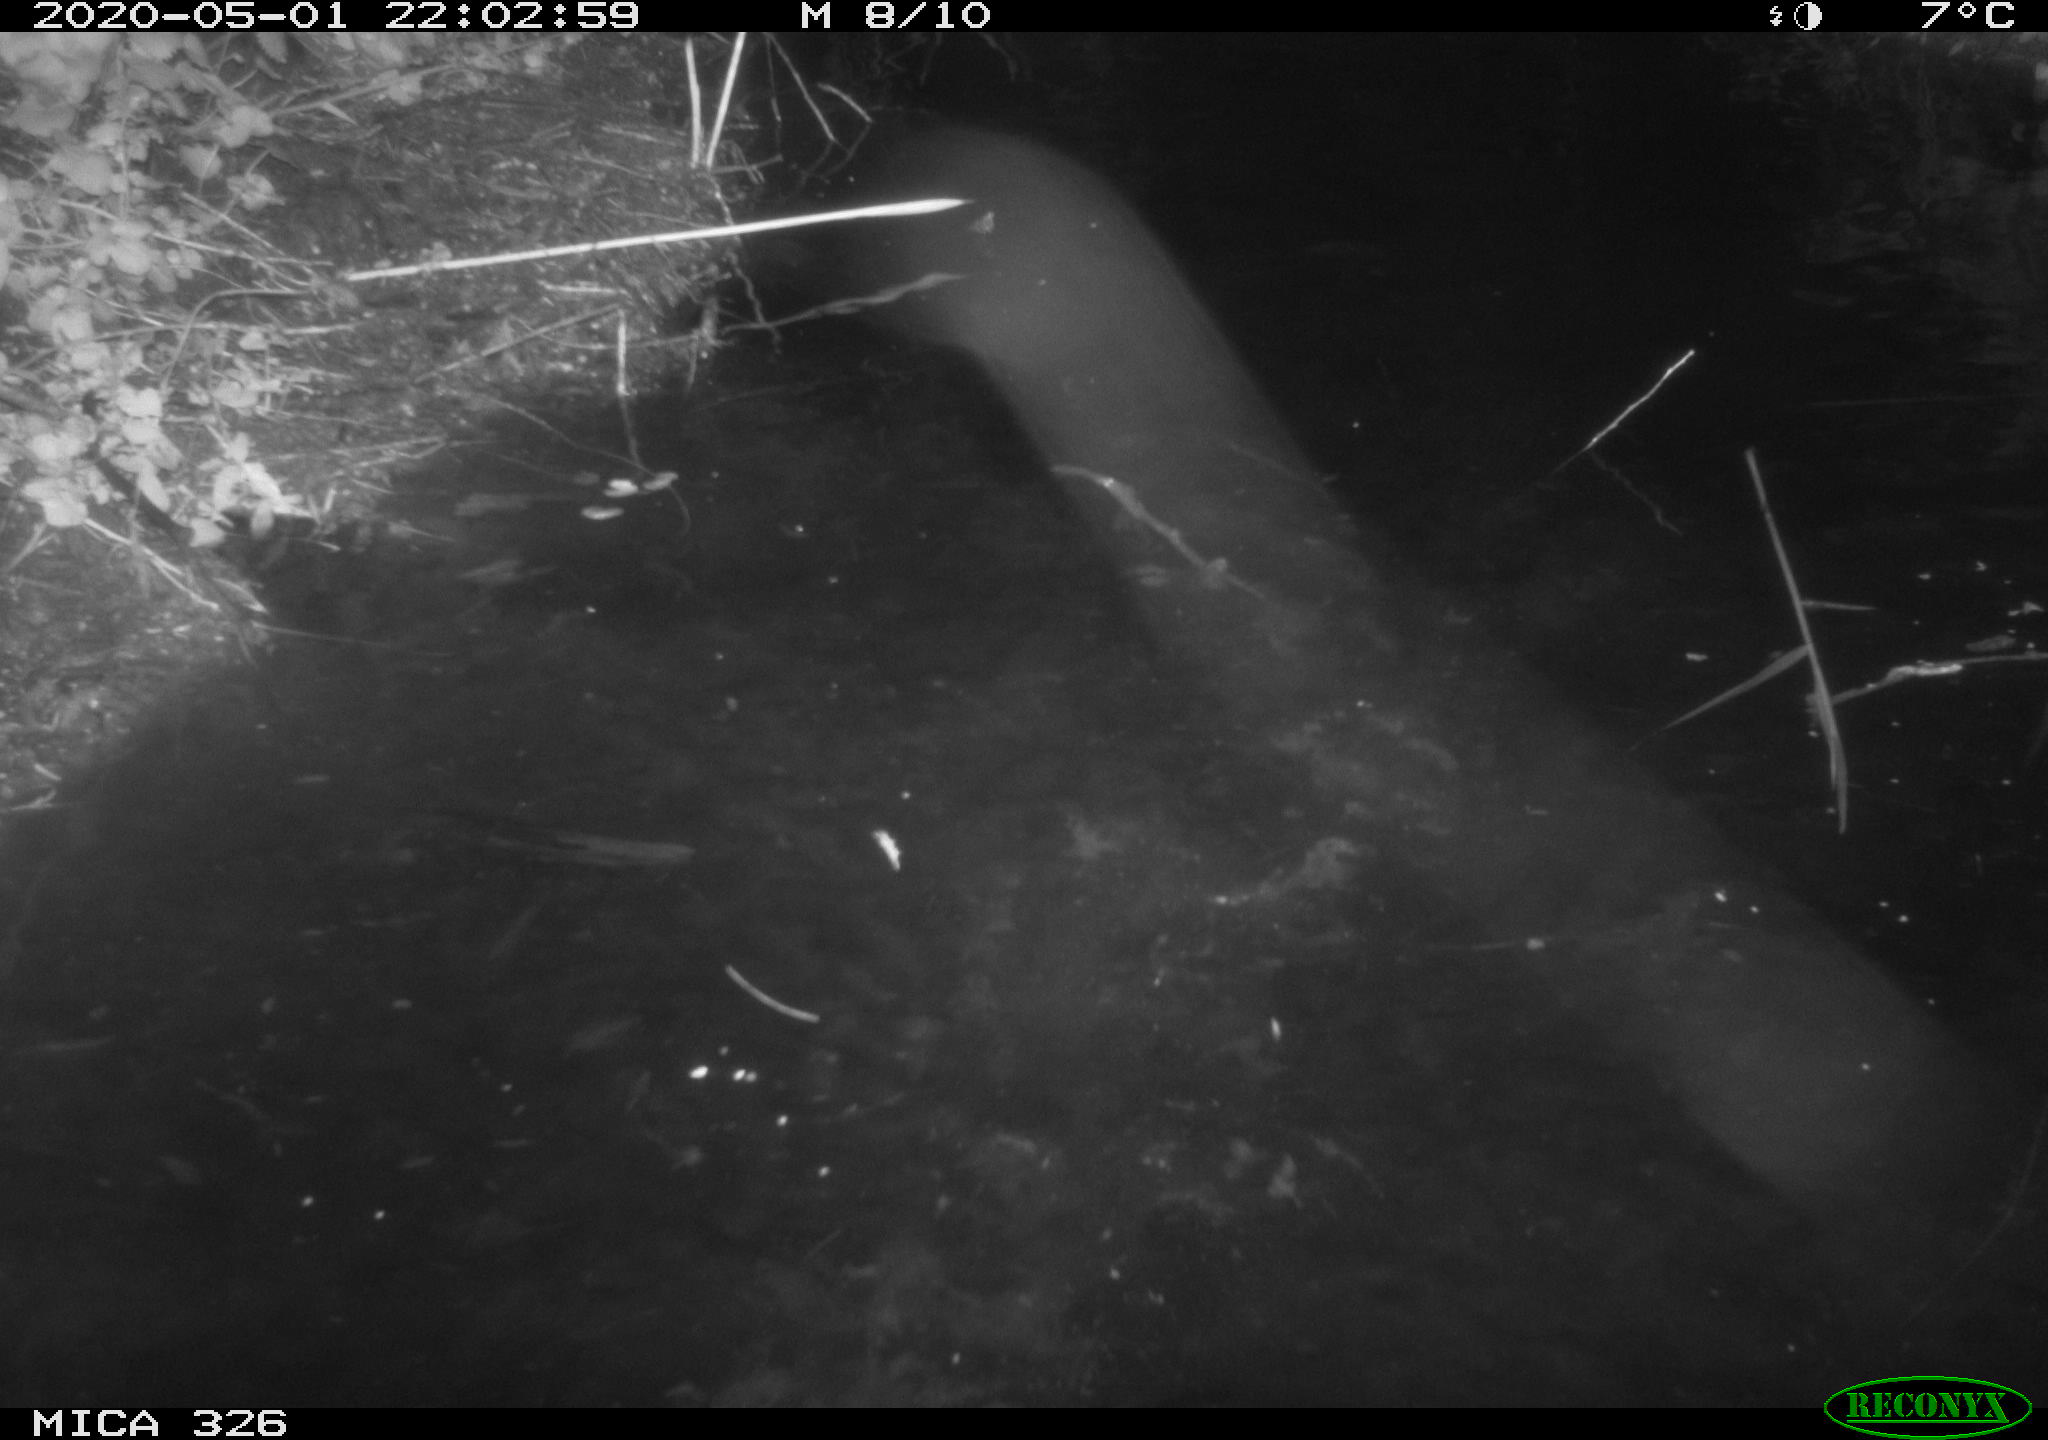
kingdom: Animalia
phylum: Chordata
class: Mammalia
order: Rodentia
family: Myocastoridae
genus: Myocastor
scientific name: Myocastor coypus
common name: Coypu
